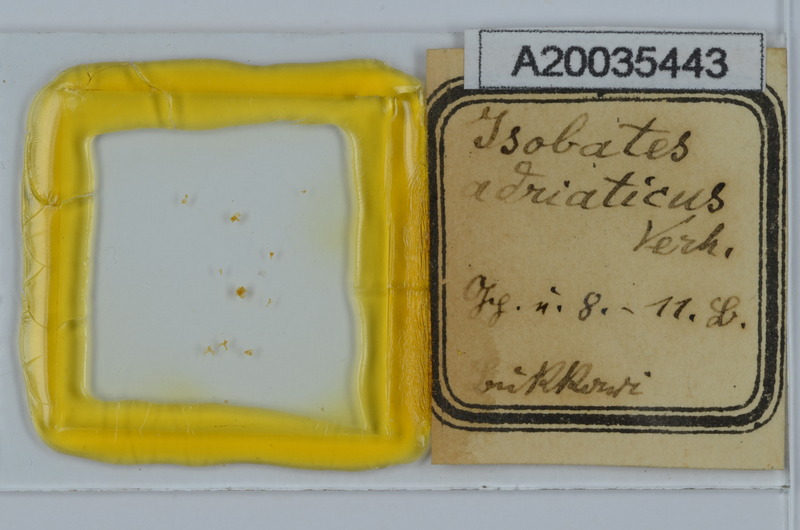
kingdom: Animalia
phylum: Arthropoda
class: Diplopoda
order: Julida
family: Nemasomatidae
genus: Thalassisobates
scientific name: Thalassisobates littoralis
